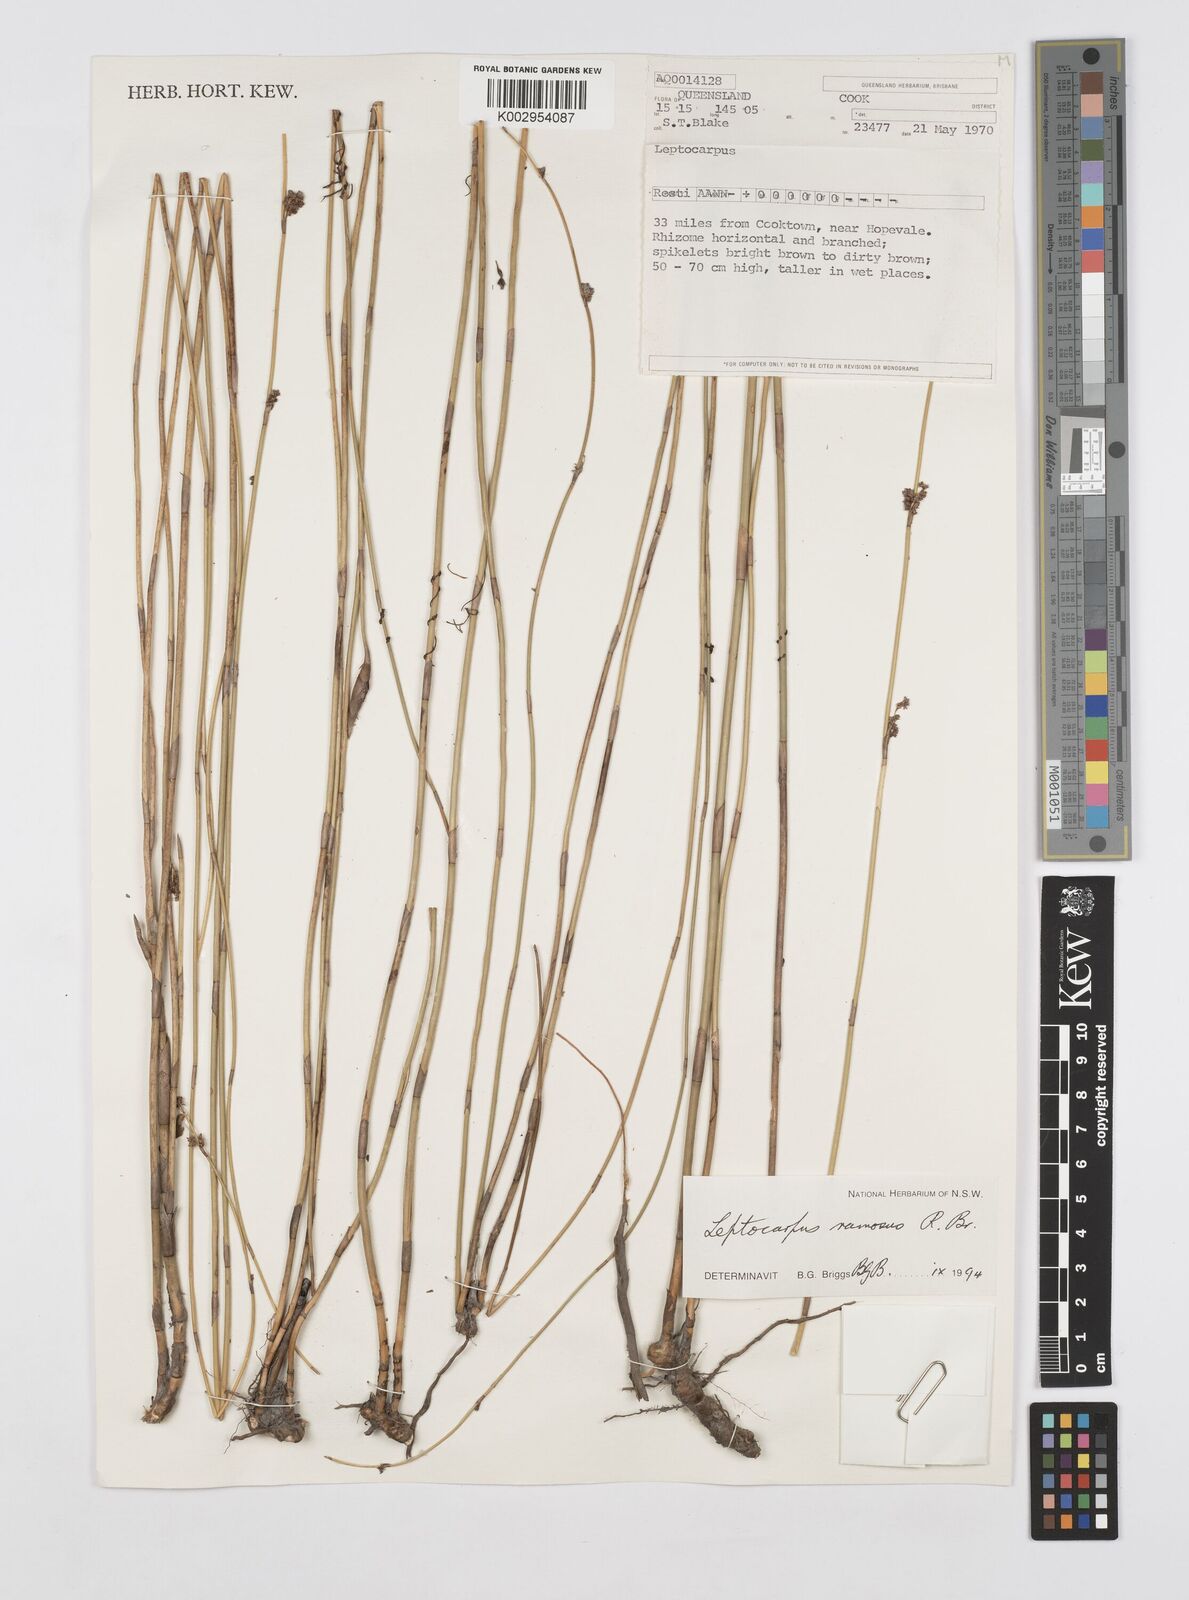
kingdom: Plantae
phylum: Tracheophyta
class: Liliopsida
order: Poales
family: Restionaceae
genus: Dapsilanthus
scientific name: Dapsilanthus ramosus
